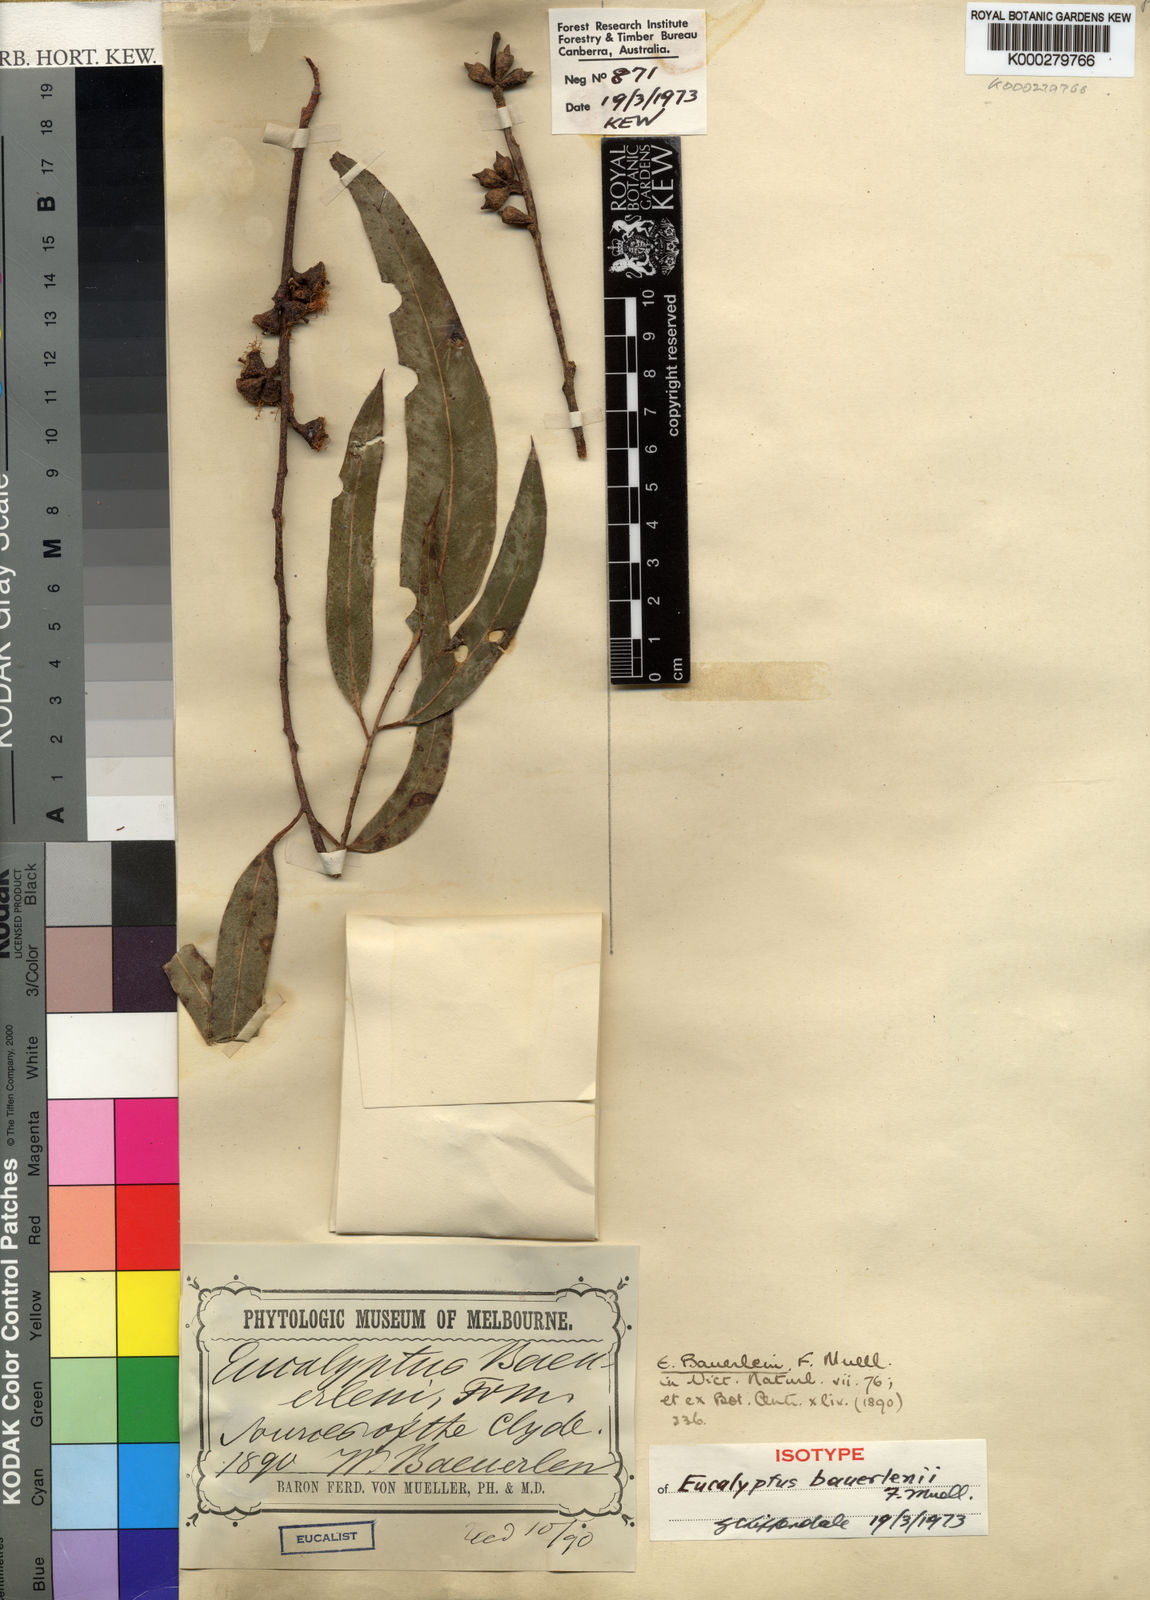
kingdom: Plantae
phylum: Tracheophyta
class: Magnoliopsida
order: Myrtales
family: Myrtaceae
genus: Eucalyptus
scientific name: Eucalyptus baeuerlenii
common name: Baeuerlens gum
